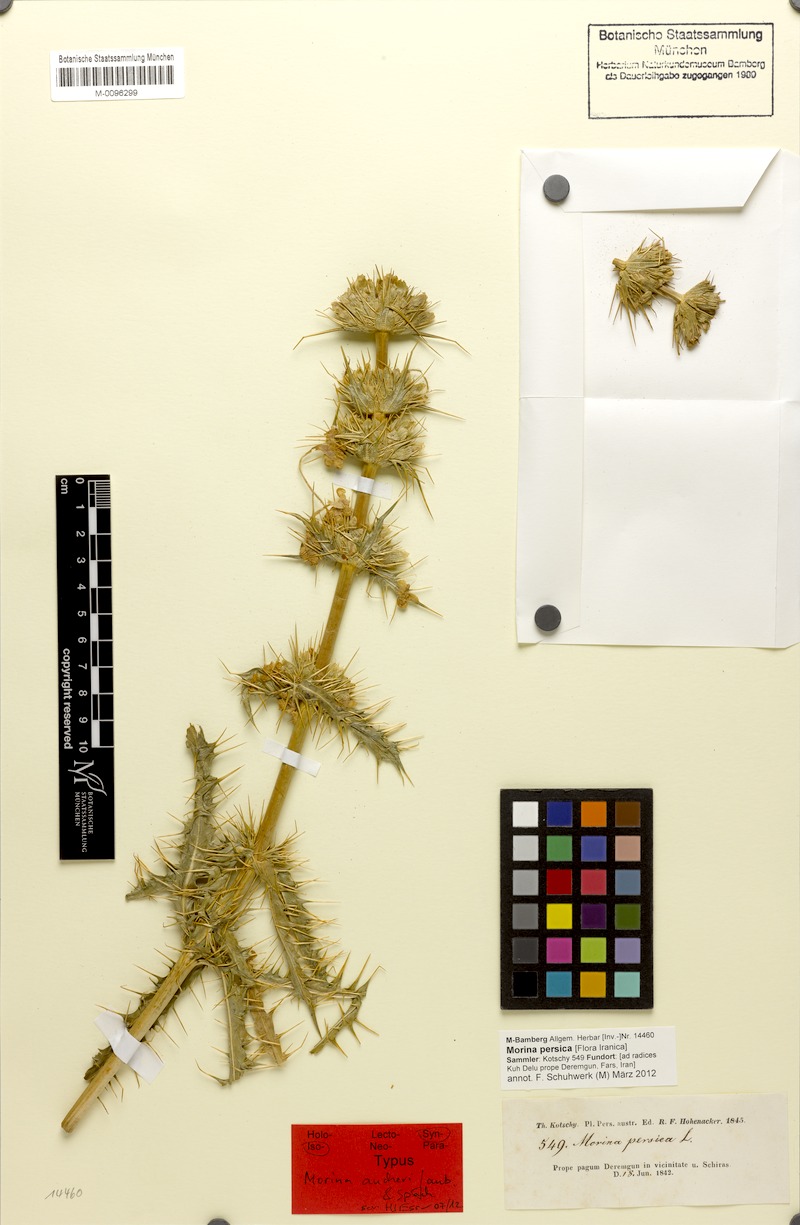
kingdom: Plantae
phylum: Tracheophyta
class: Magnoliopsida
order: Dipsacales
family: Caprifoliaceae
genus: Morina
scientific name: Morina persica
